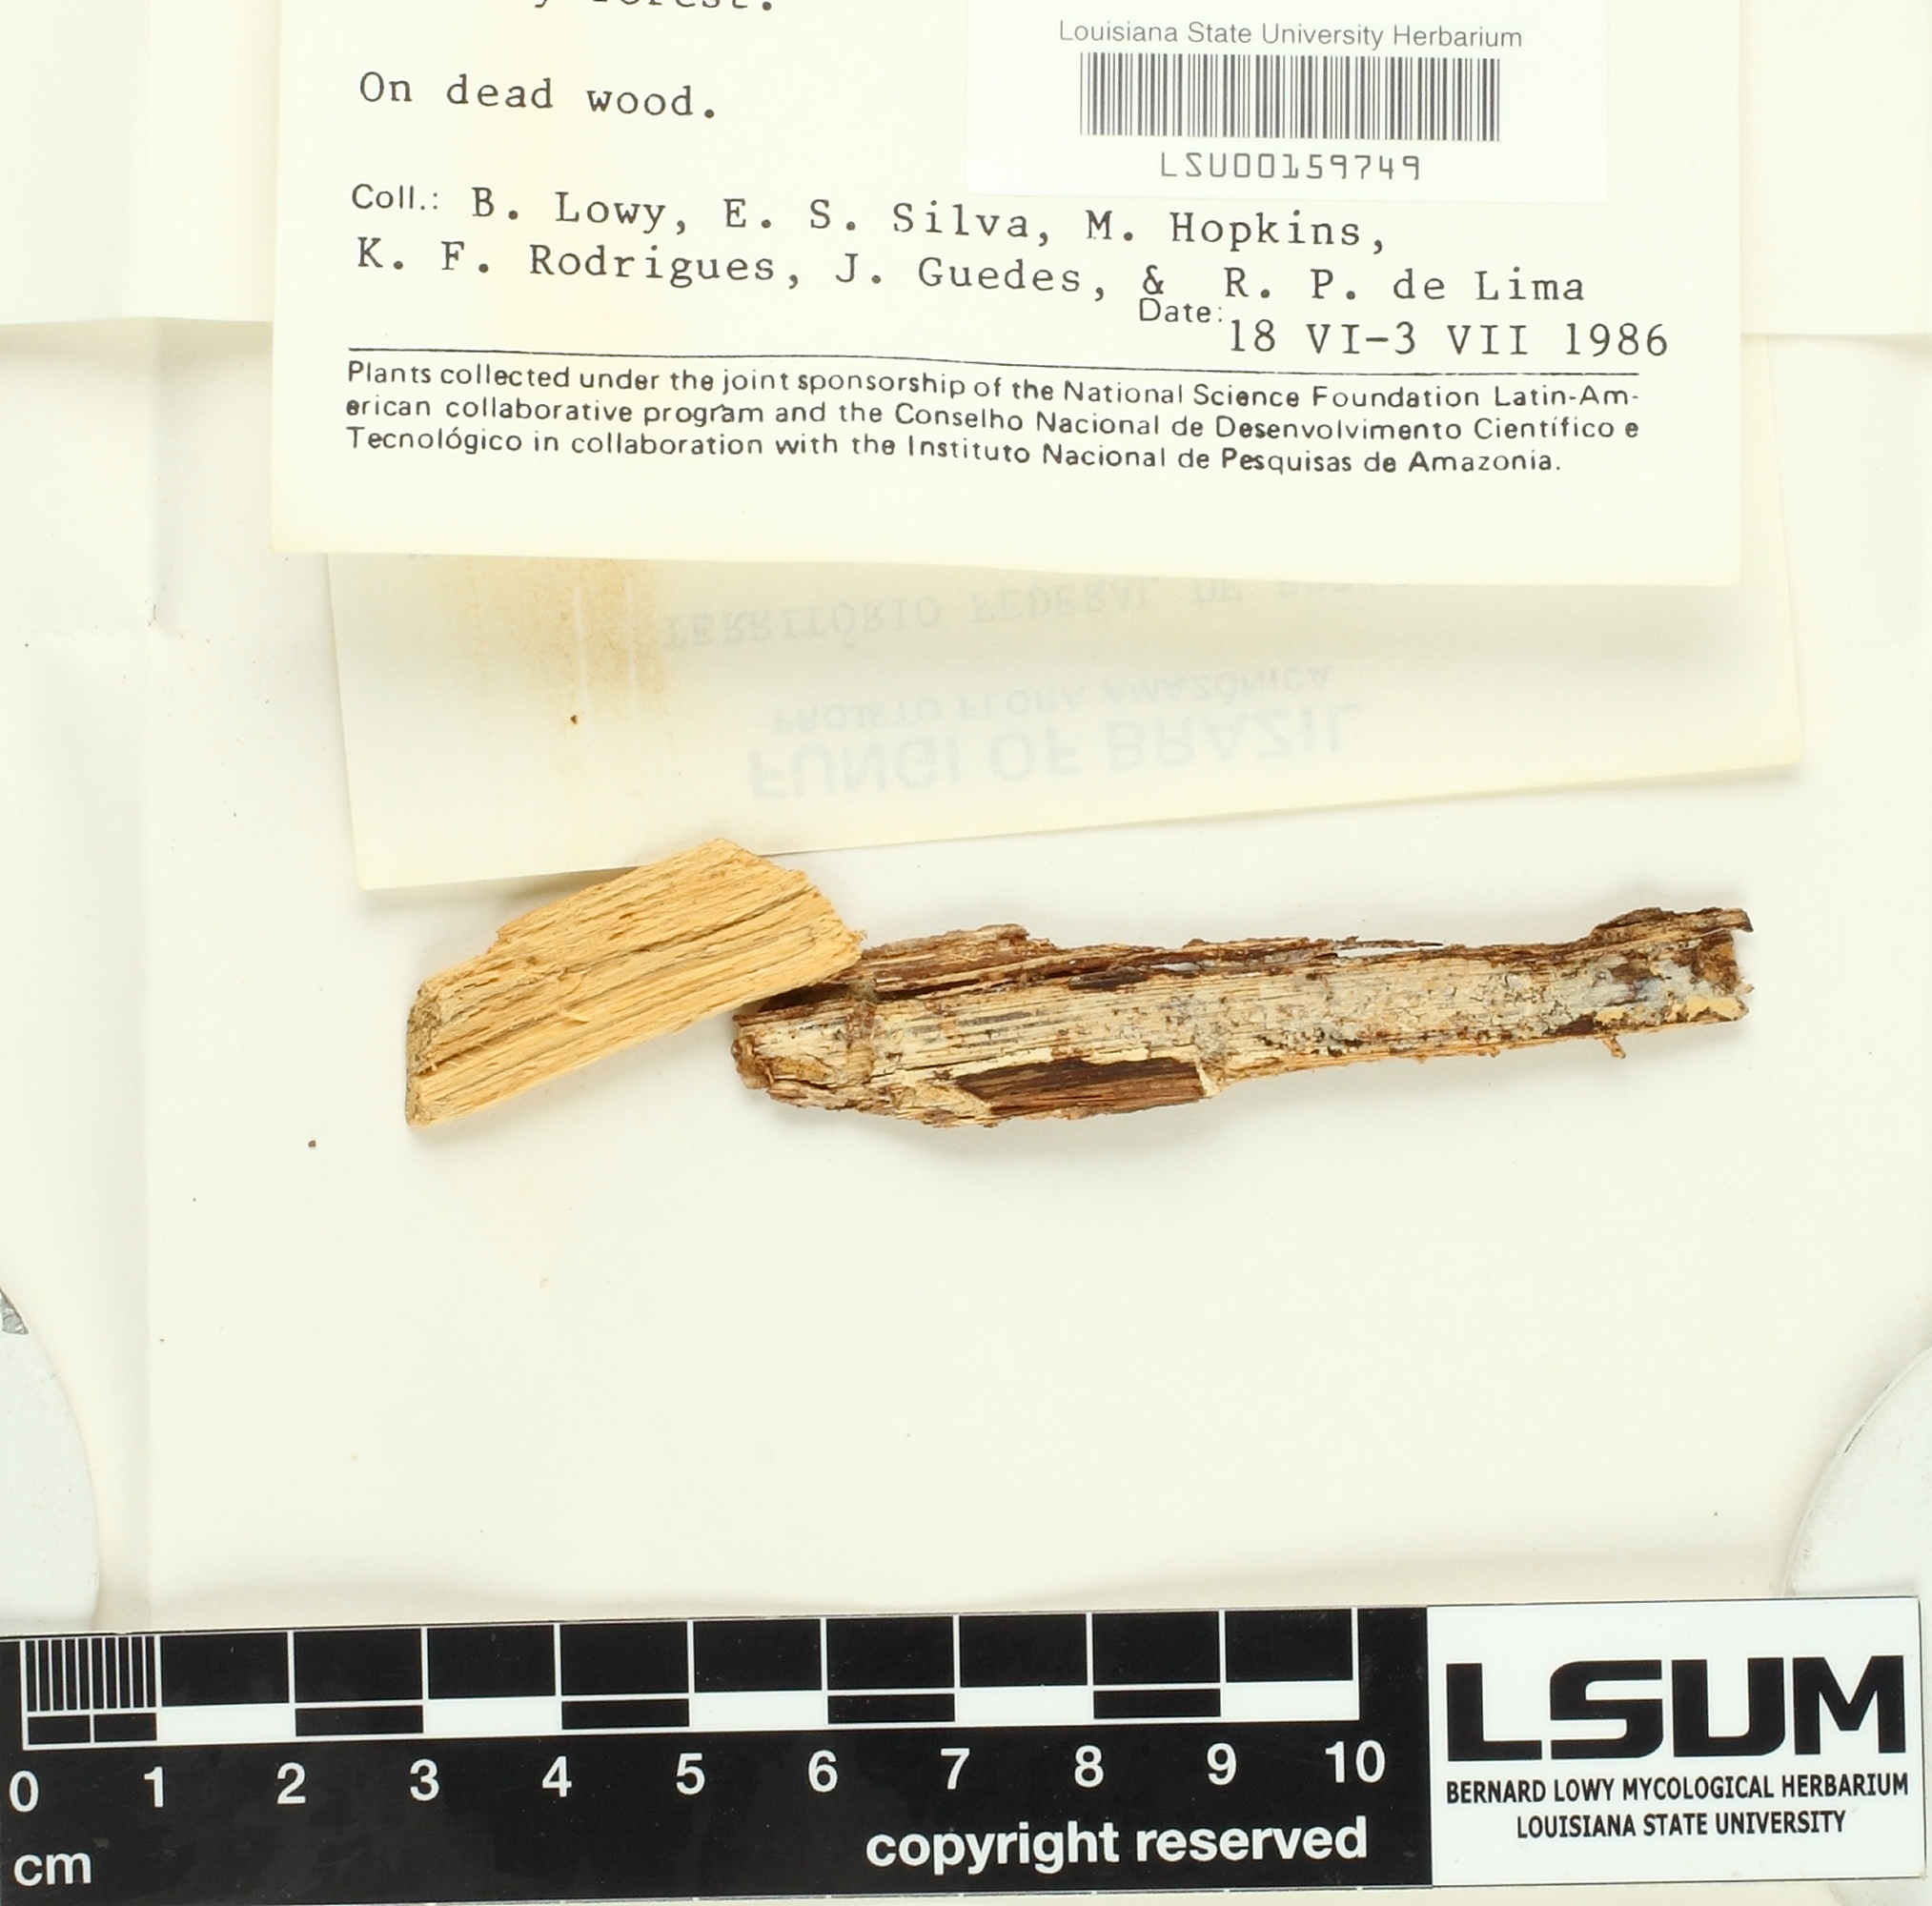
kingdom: Fungi
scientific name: Fungi
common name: Fungi
